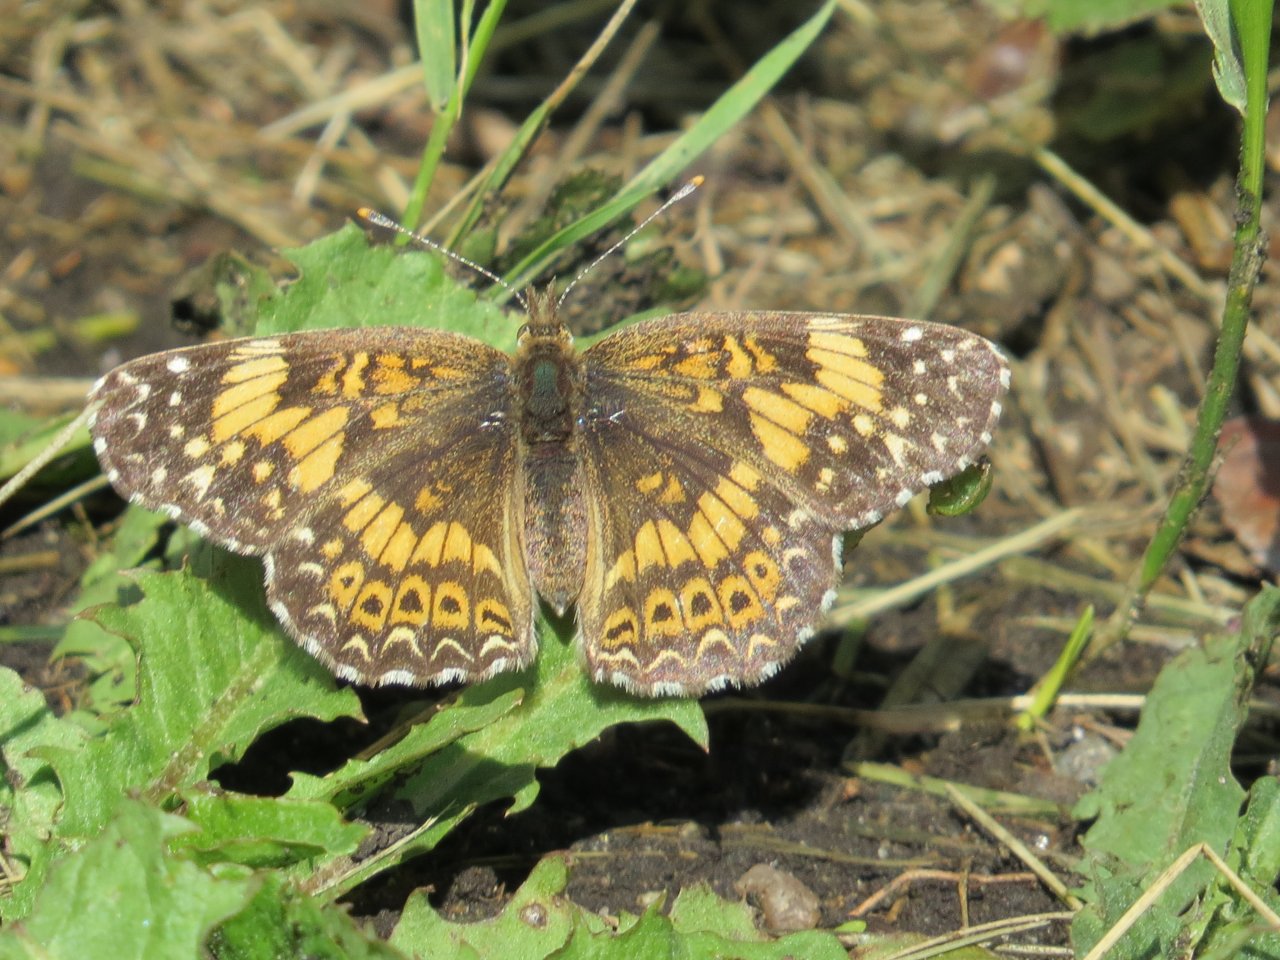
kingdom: Animalia
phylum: Arthropoda
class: Insecta
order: Lepidoptera
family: Nymphalidae
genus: Chlosyne
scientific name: Chlosyne gorgone
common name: Gorgone Checkerspot
